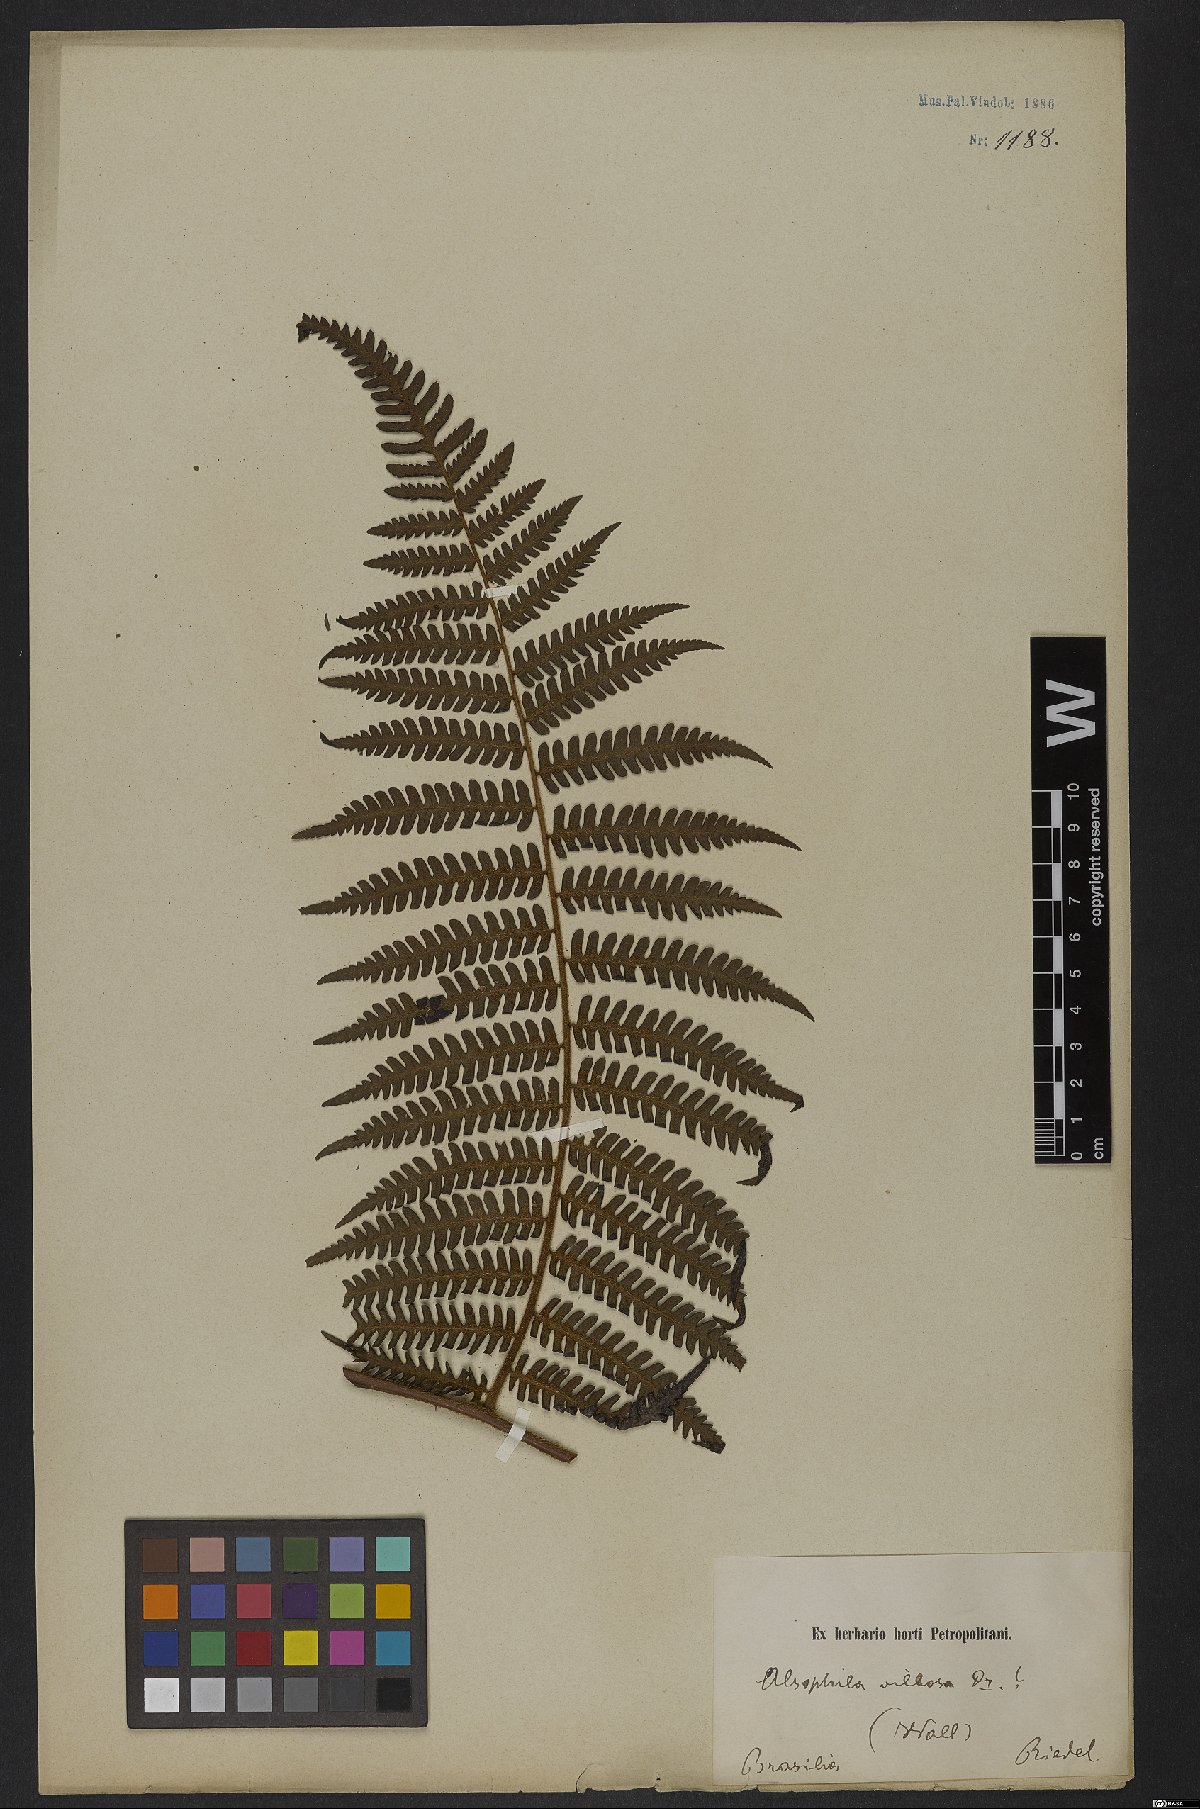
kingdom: Plantae
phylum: Tracheophyta
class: Polypodiopsida
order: Cyatheales
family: Cyatheaceae
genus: Cyathea
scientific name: Cyathea villosa
